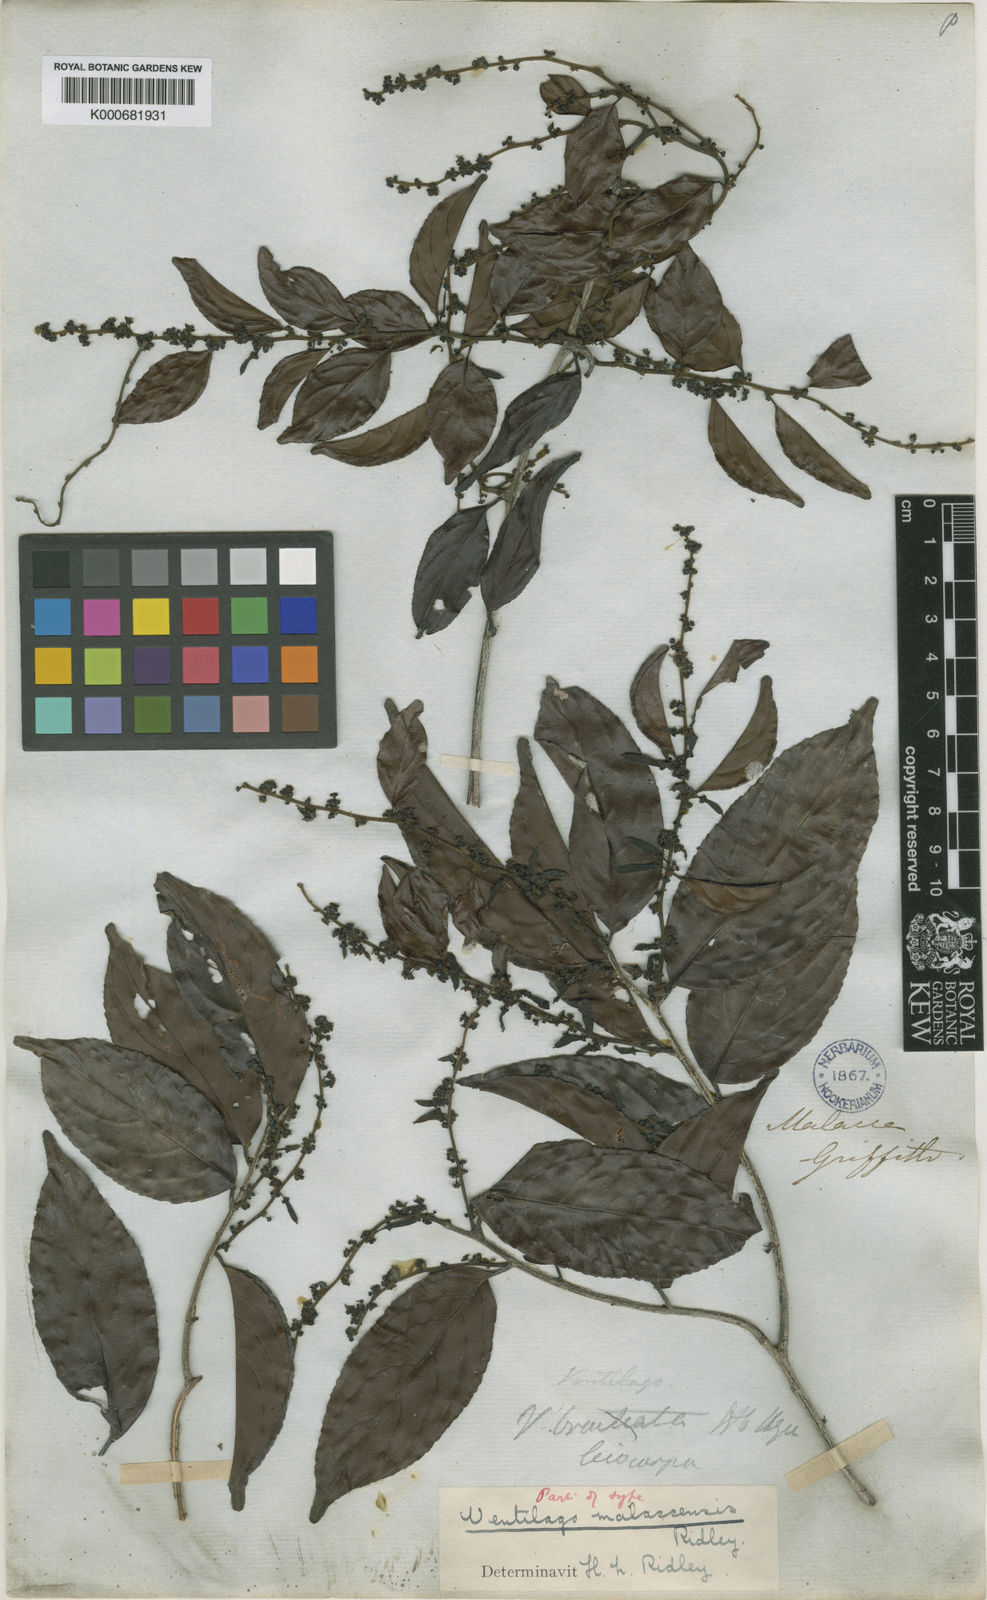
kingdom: Plantae
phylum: Tracheophyta
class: Magnoliopsida
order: Rosales
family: Rhamnaceae
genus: Ventilago
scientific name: Ventilago malaccensis
